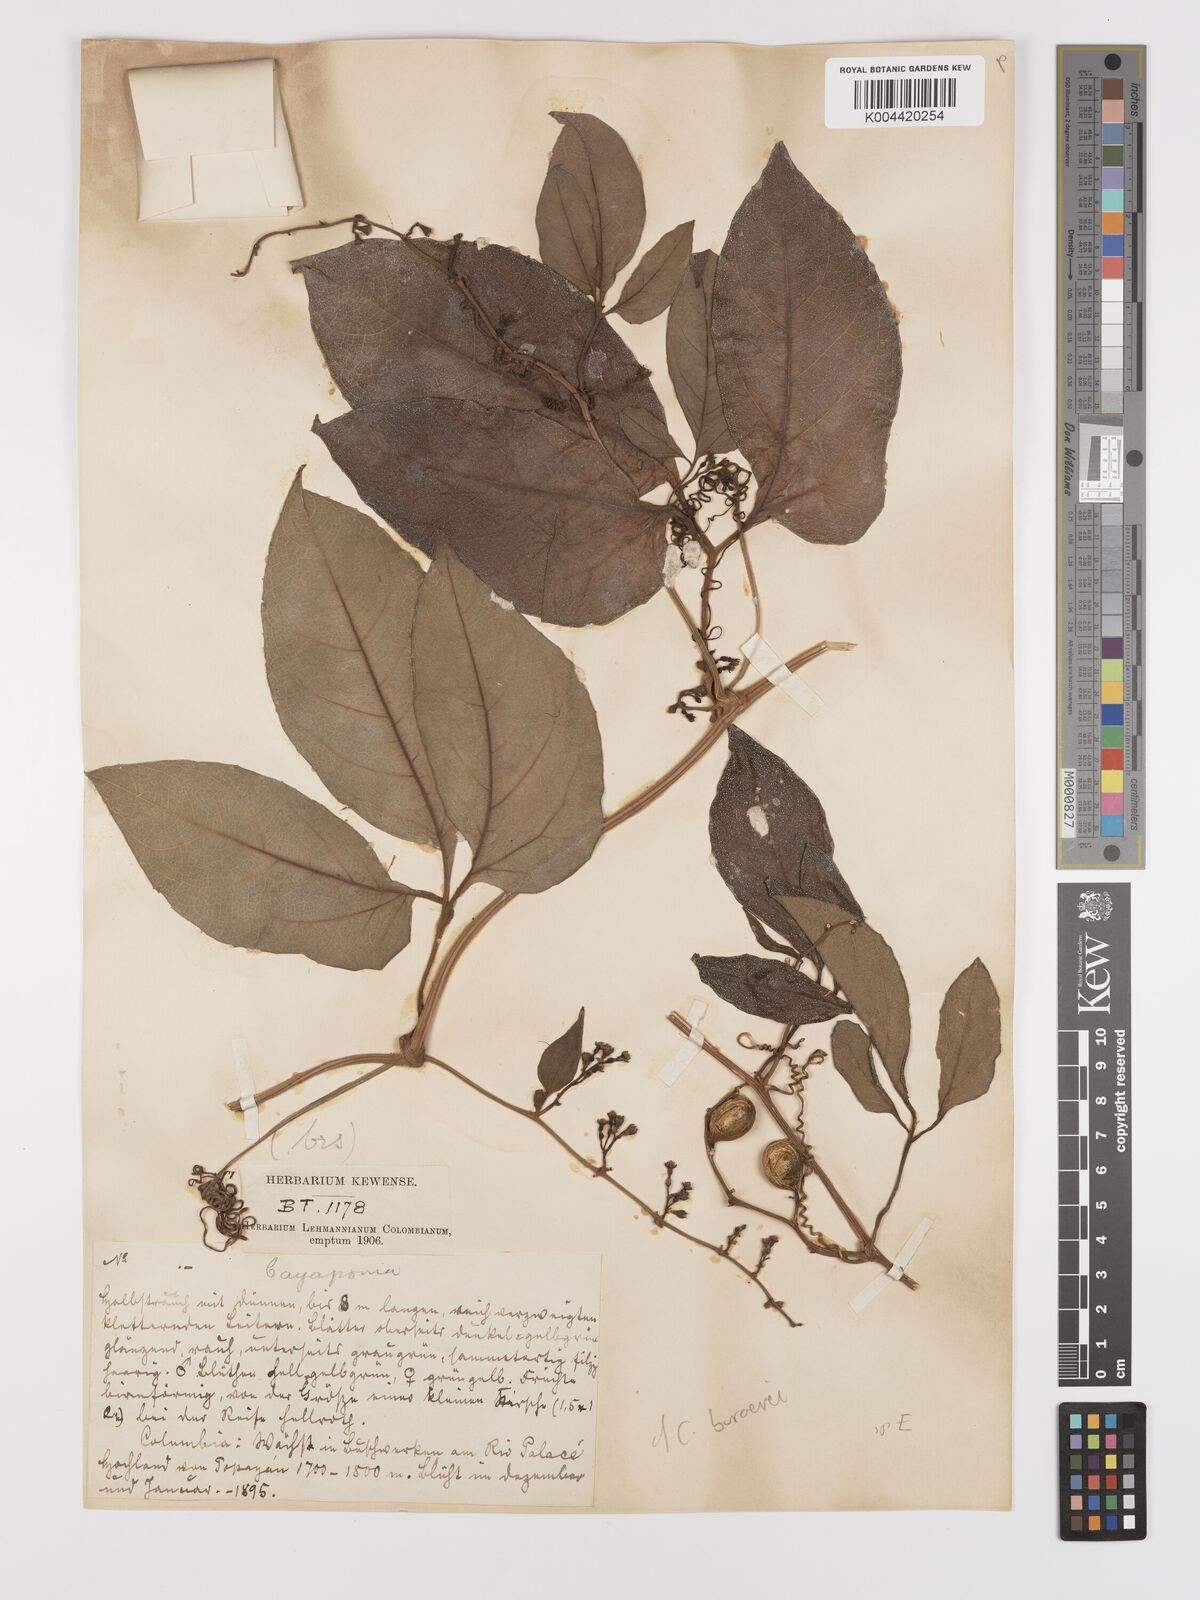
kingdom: Plantae
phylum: Tracheophyta
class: Magnoliopsida
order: Cucurbitales
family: Cucurbitaceae
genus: Cayaponia
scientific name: Cayaponia buraeavii
